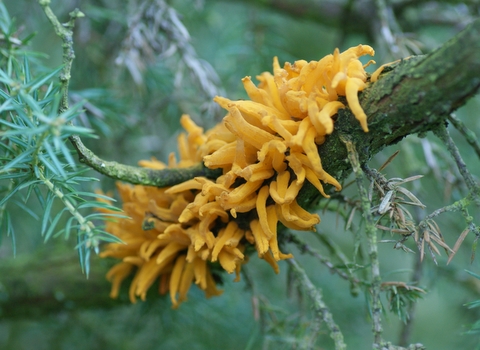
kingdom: Fungi
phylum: Basidiomycota
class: Pucciniomycetes
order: Pucciniales
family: Gymnosporangiaceae
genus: Gymnosporangium
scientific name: Gymnosporangium clavariiforme
